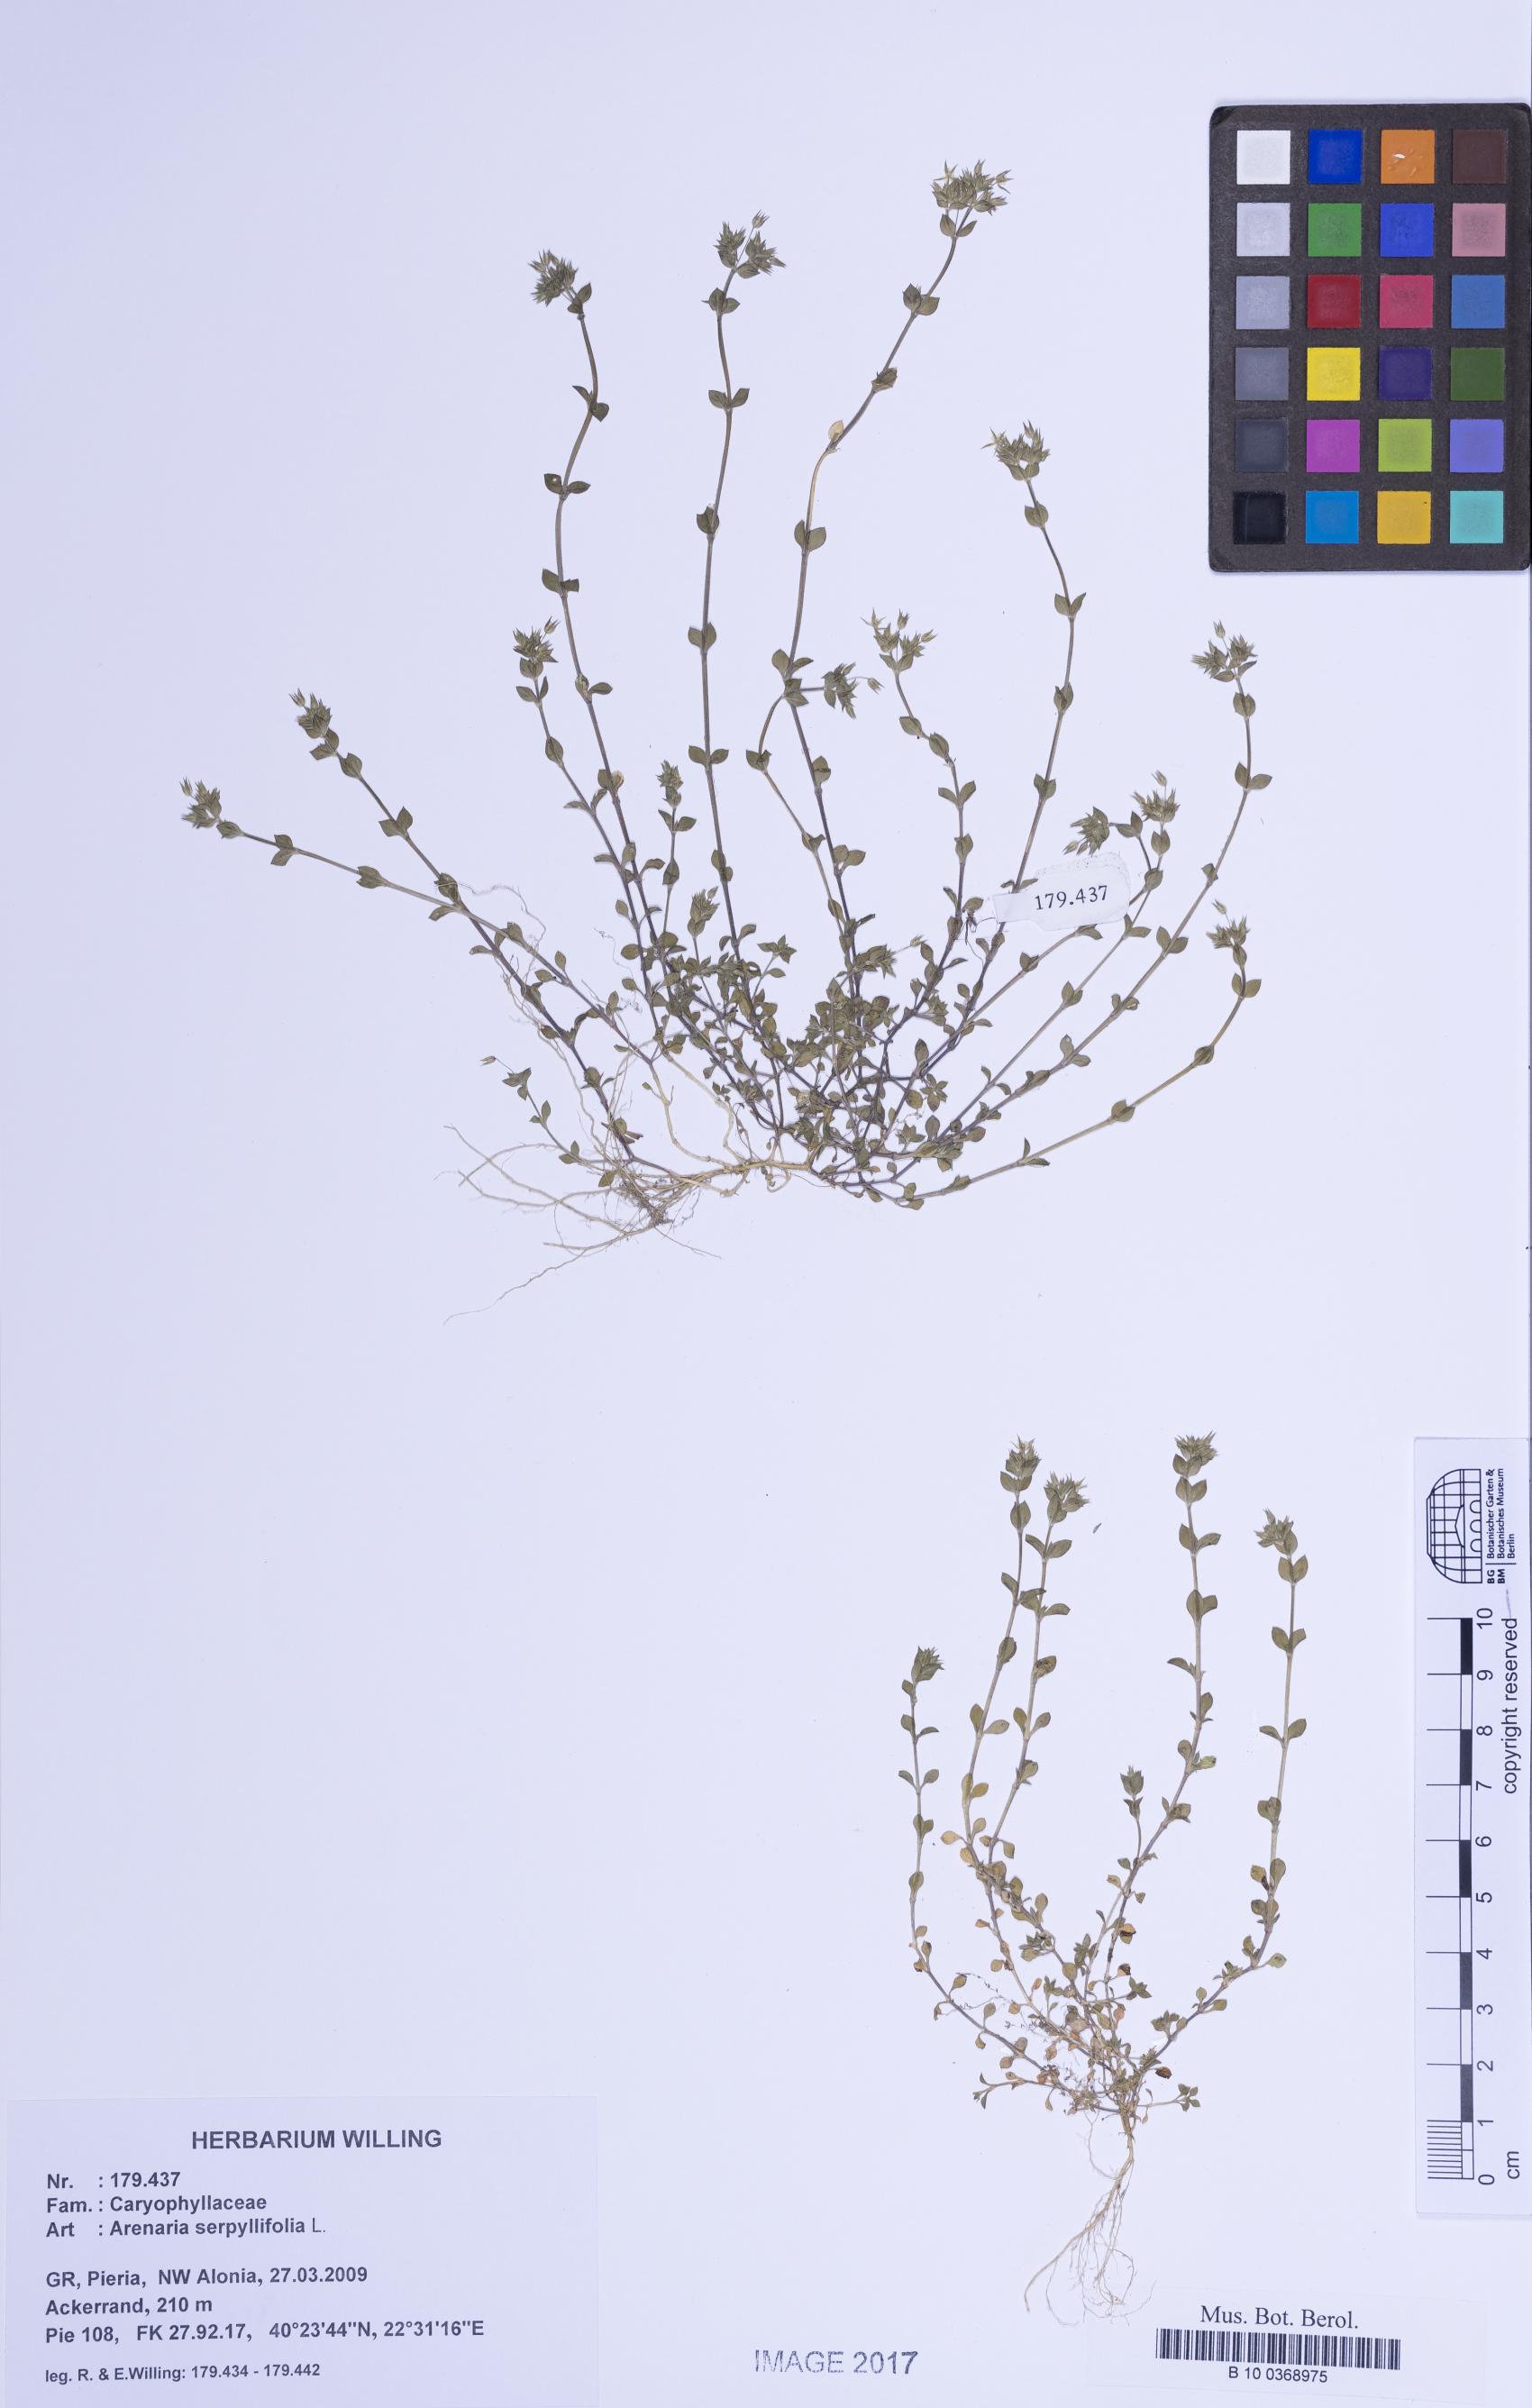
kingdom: Plantae
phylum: Tracheophyta
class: Magnoliopsida
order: Caryophyllales
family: Caryophyllaceae
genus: Arenaria
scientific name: Arenaria serpyllifolia
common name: Thyme-leaved sandwort
